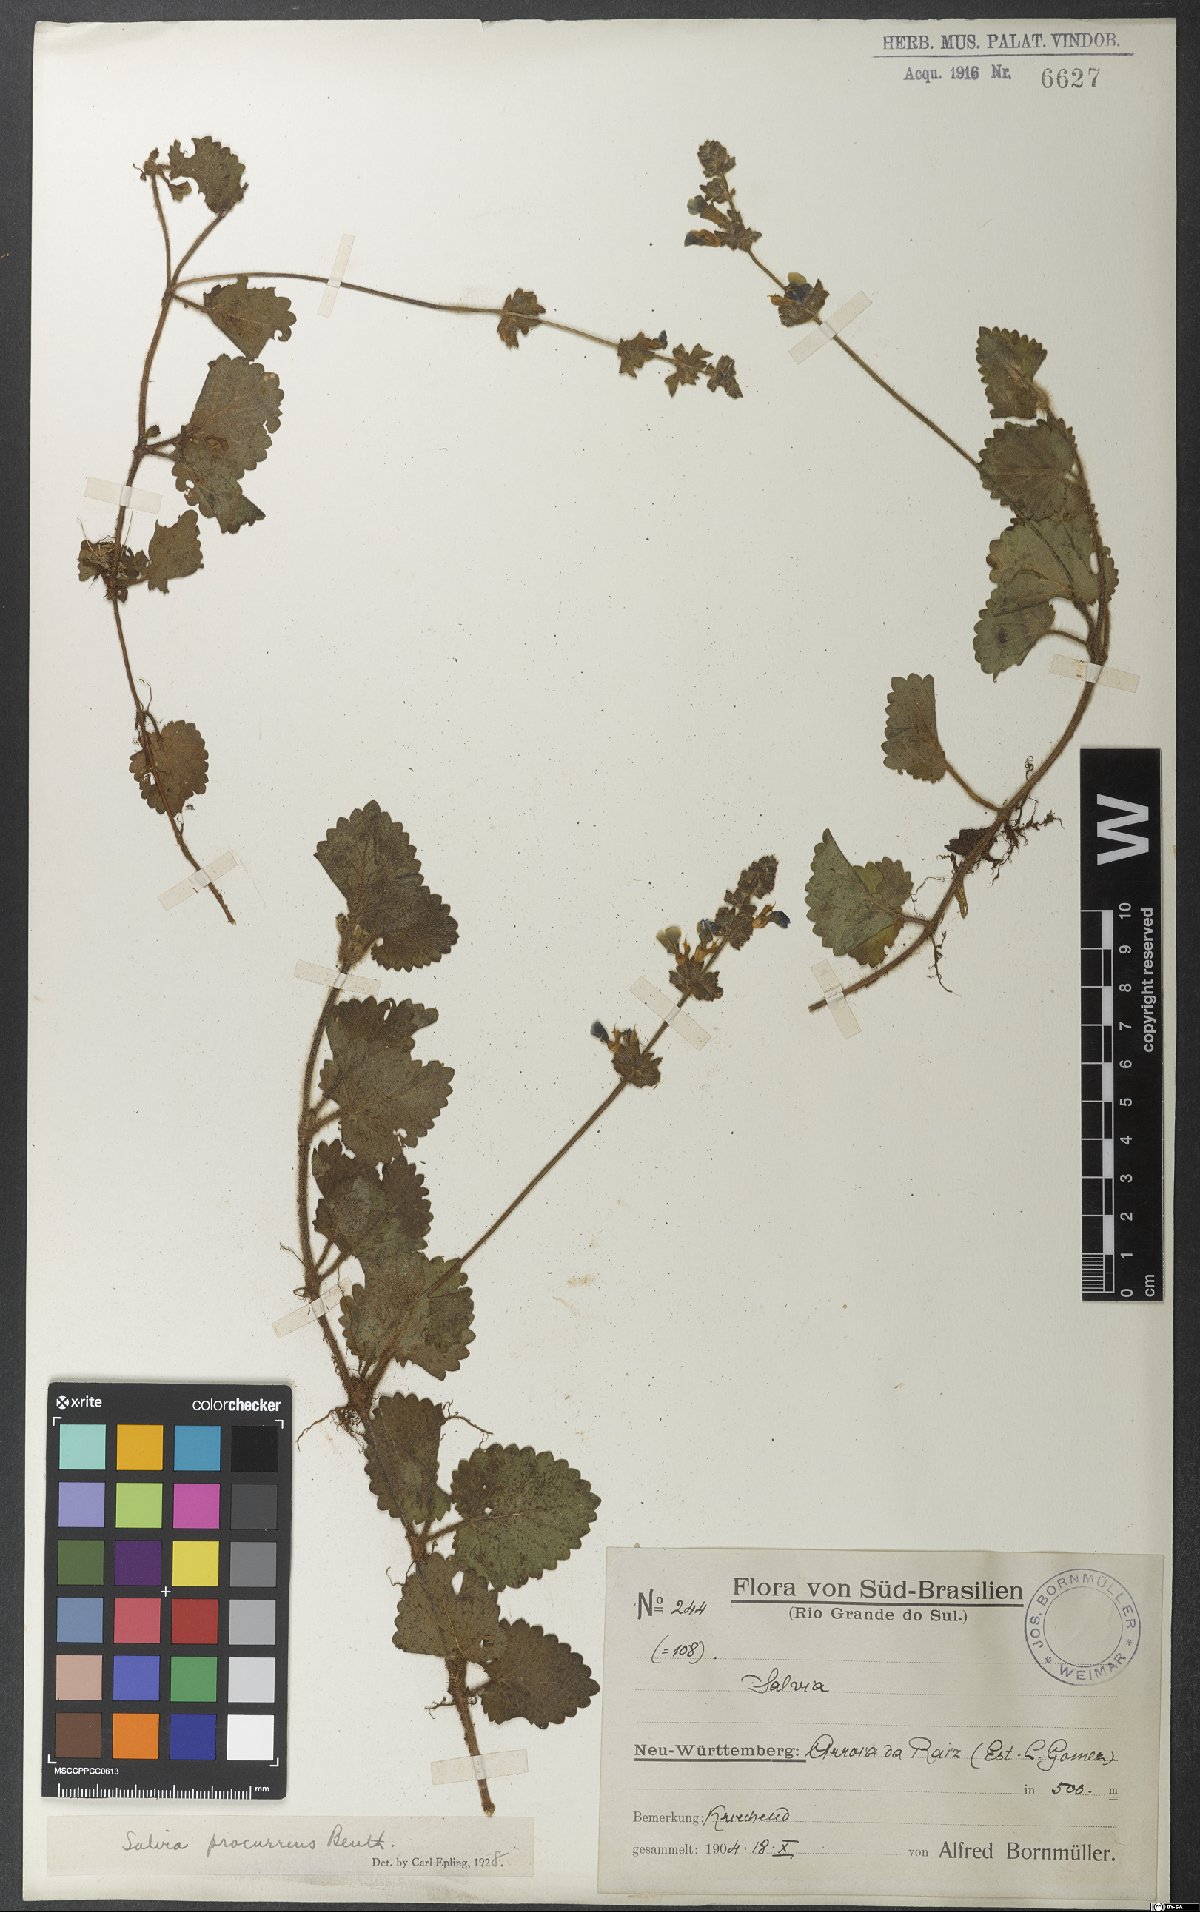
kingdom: Plantae
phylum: Tracheophyta
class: Magnoliopsida
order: Lamiales
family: Lamiaceae
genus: Salvia
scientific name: Salvia procurrens
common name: Blue creeper
